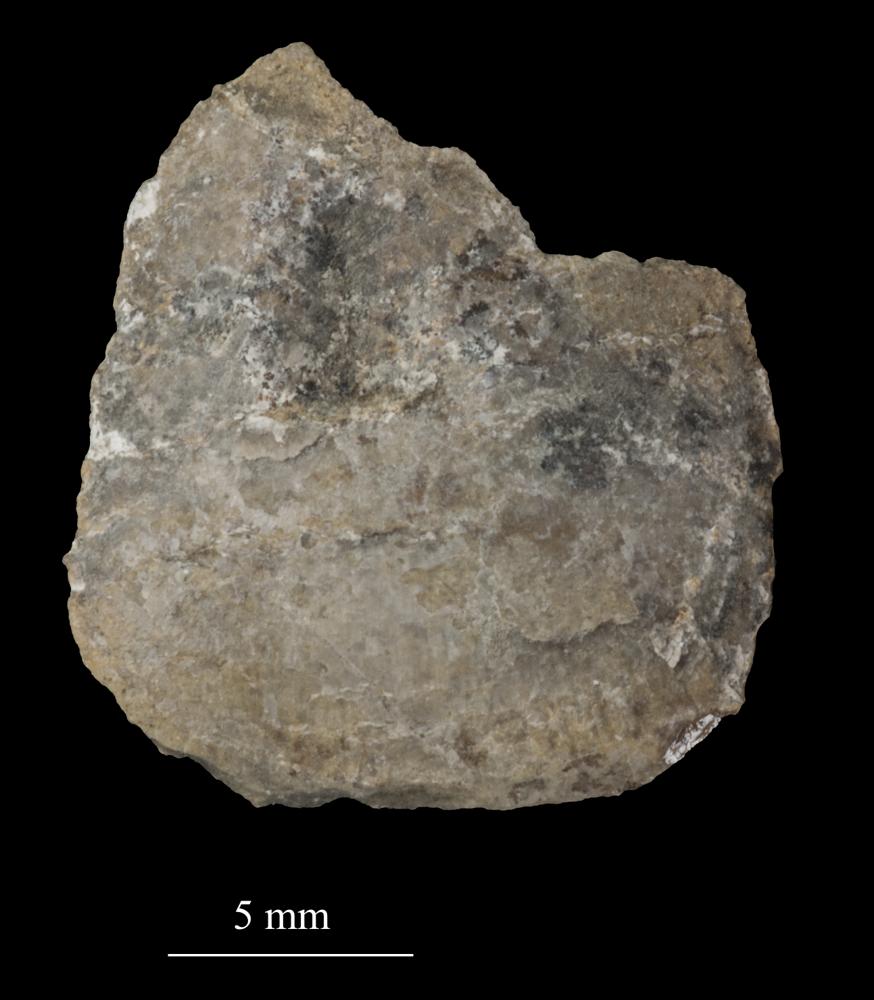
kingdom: Animalia
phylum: Brachiopoda
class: Lingulata
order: Lingulida
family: Pseudolingulidae
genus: Pseudolingula
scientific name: Pseudolingula
